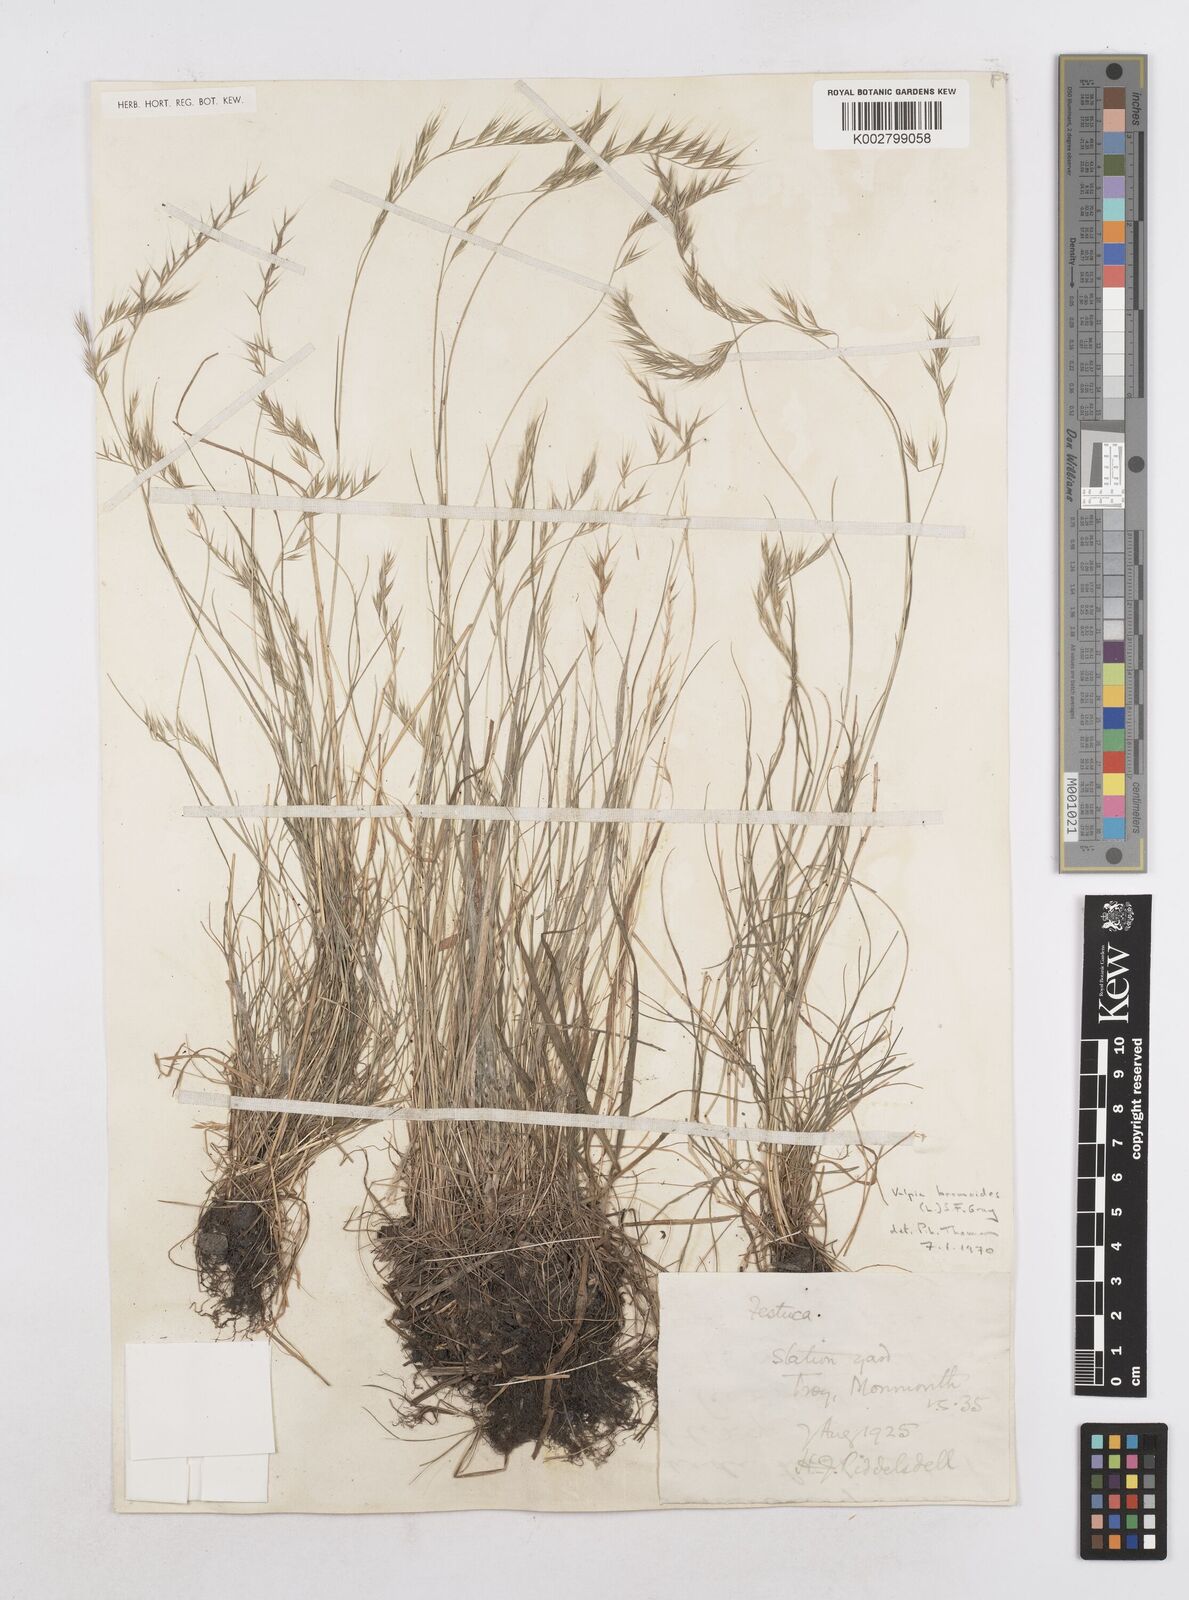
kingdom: Plantae
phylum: Tracheophyta
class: Liliopsida
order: Poales
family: Poaceae
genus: Festuca
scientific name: Festuca bromoides
